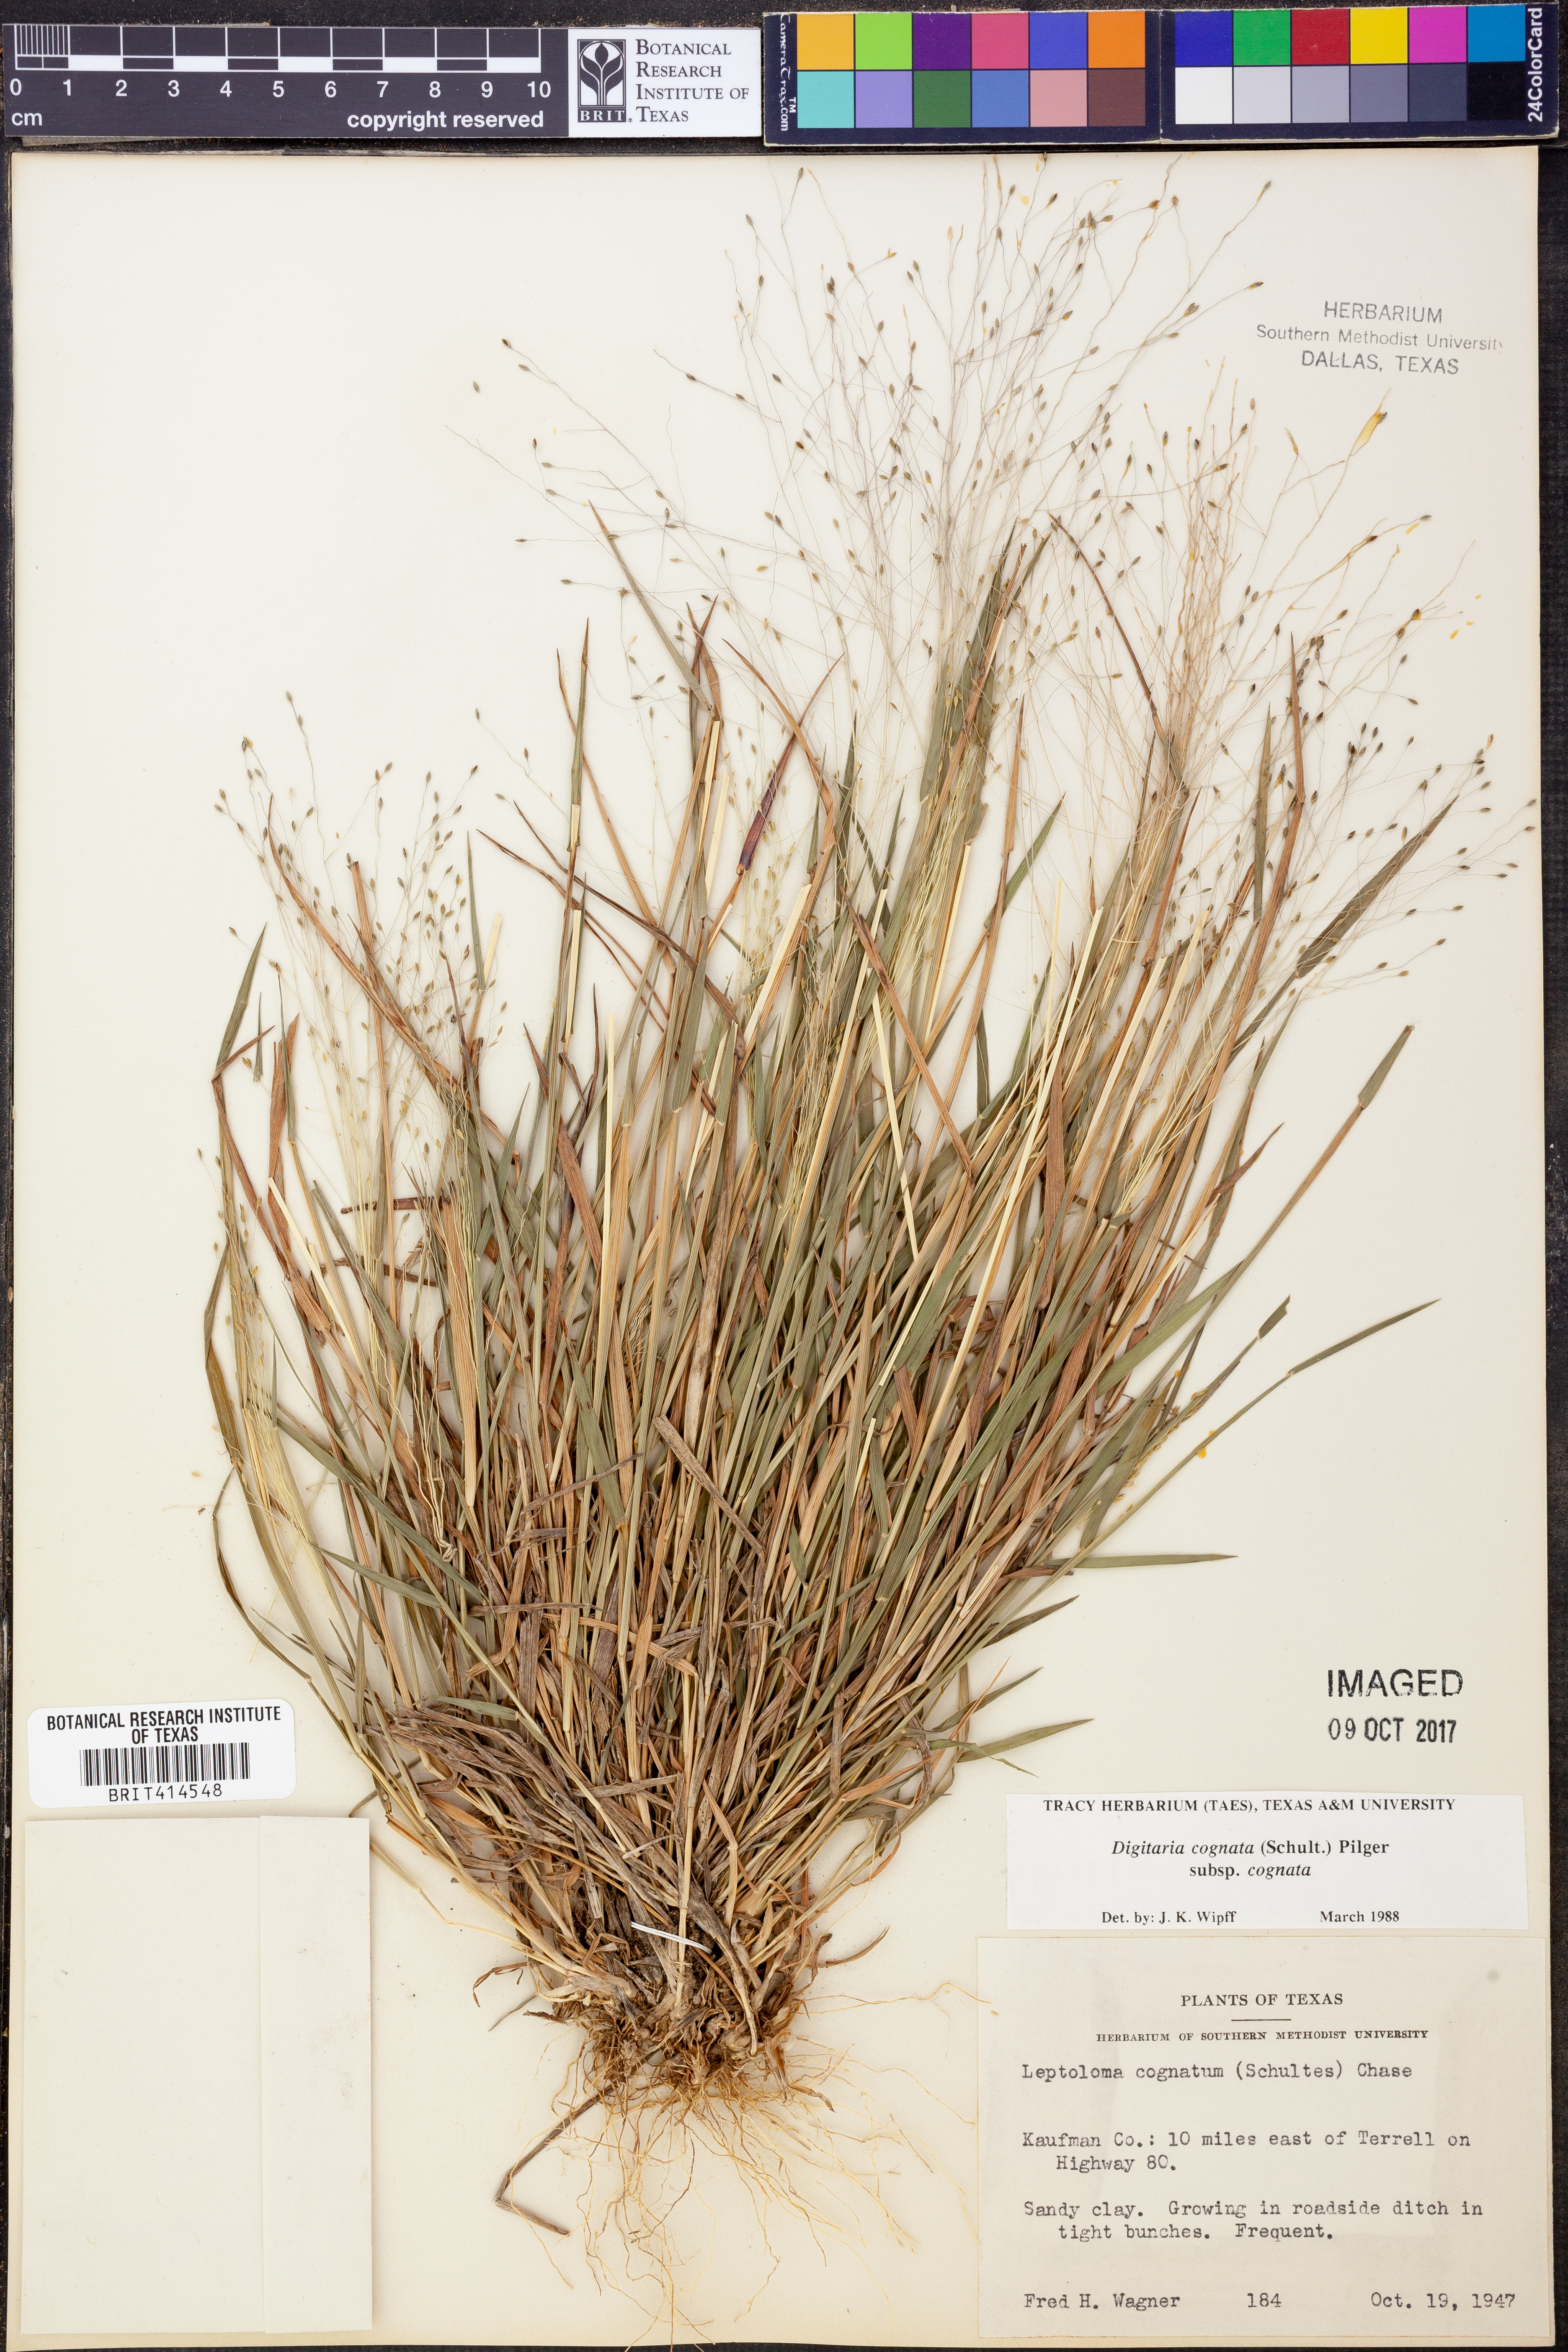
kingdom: Plantae
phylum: Tracheophyta
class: Liliopsida
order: Poales
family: Poaceae
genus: Digitaria
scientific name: Digitaria cognata
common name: Fall witchgrass
